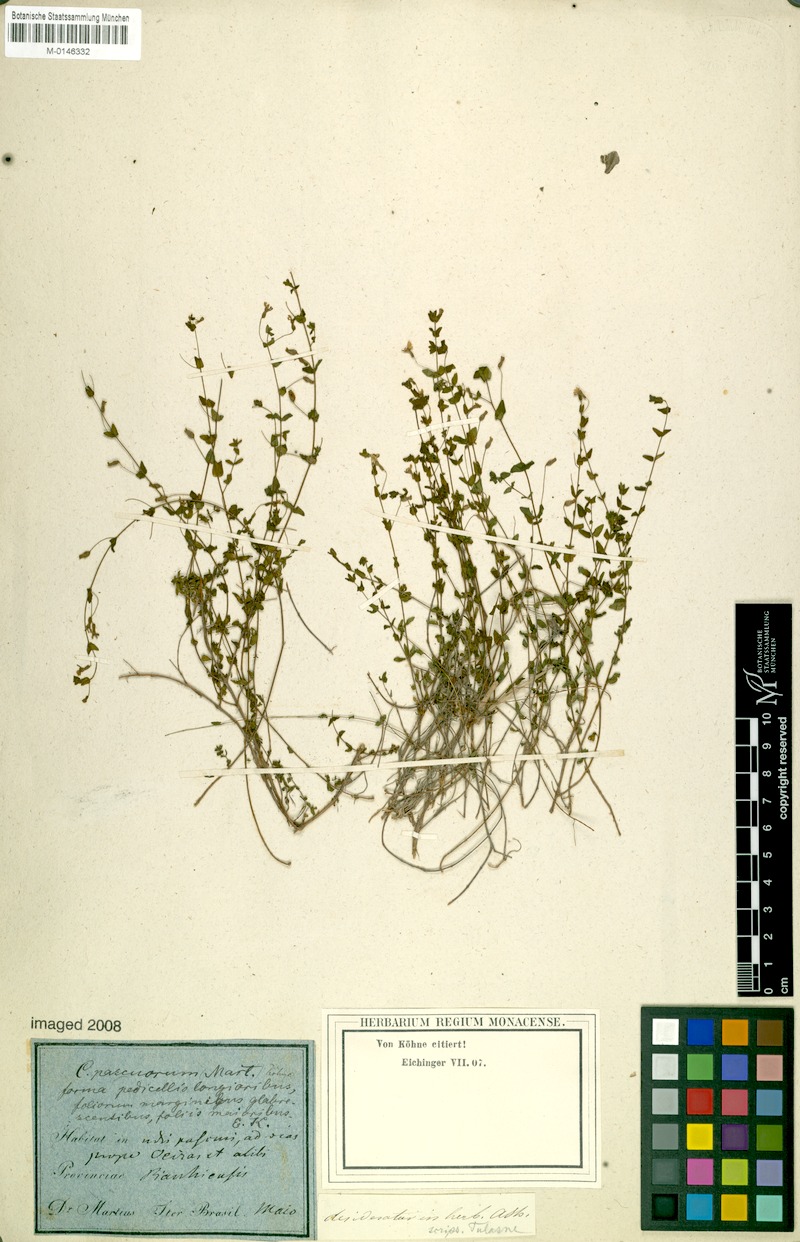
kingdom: Plantae
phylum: Tracheophyta
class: Magnoliopsida
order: Myrtales
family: Lythraceae
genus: Cuphea
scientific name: Cuphea pascuorum
